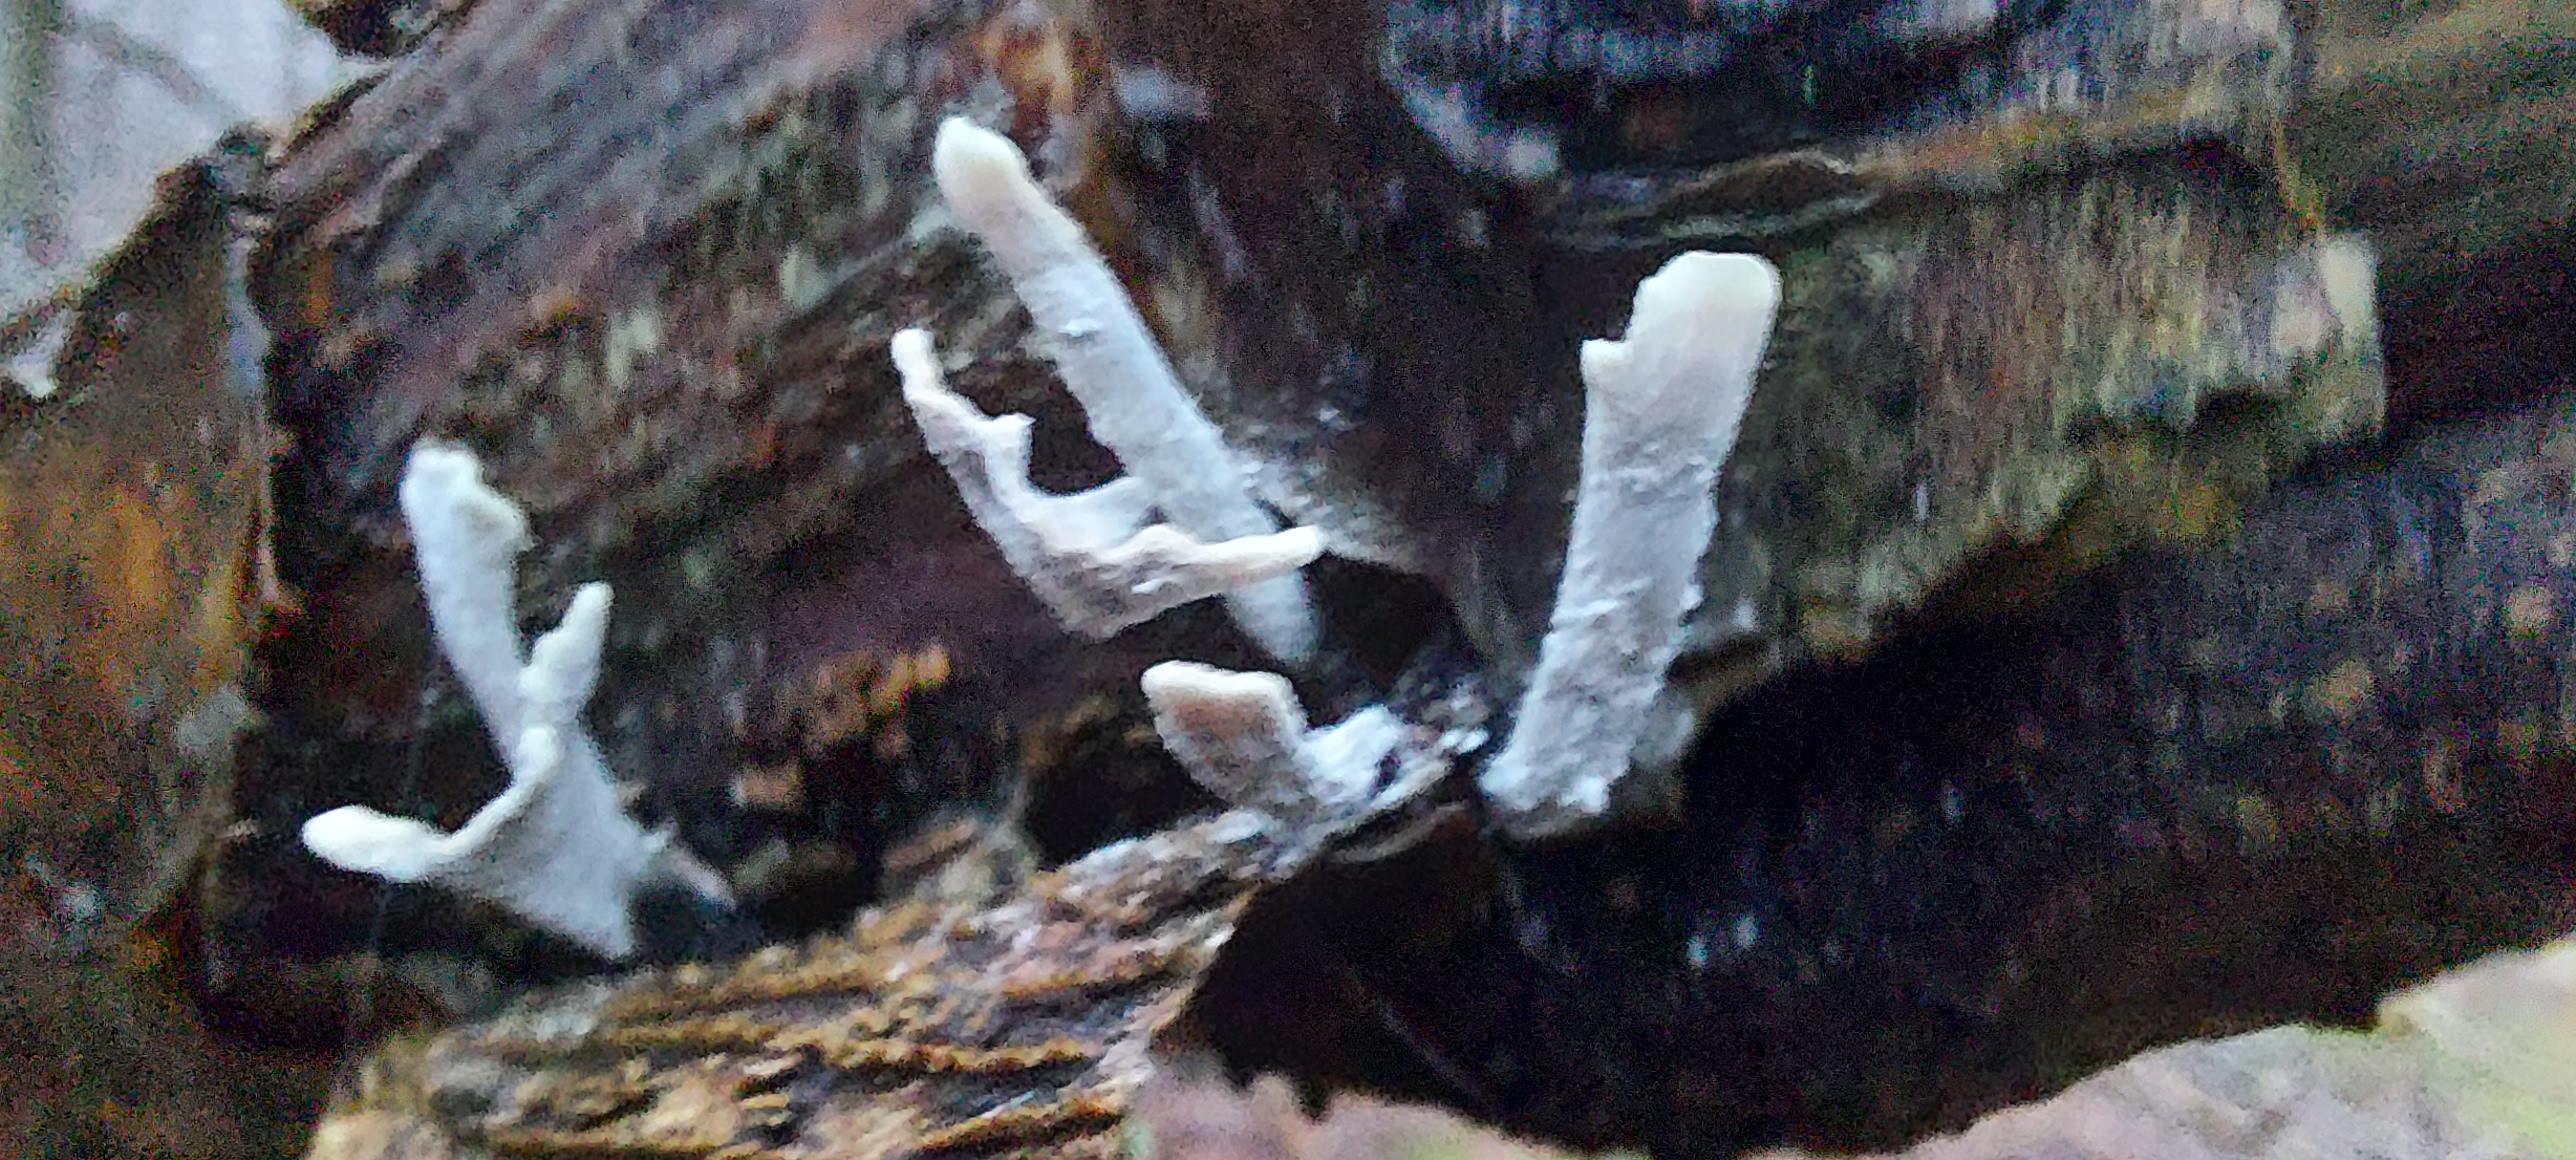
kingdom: Fungi
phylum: Ascomycota
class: Sordariomycetes
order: Xylariales
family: Xylariaceae
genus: Xylaria
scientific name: Xylaria hypoxylon
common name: grenet stødsvamp
